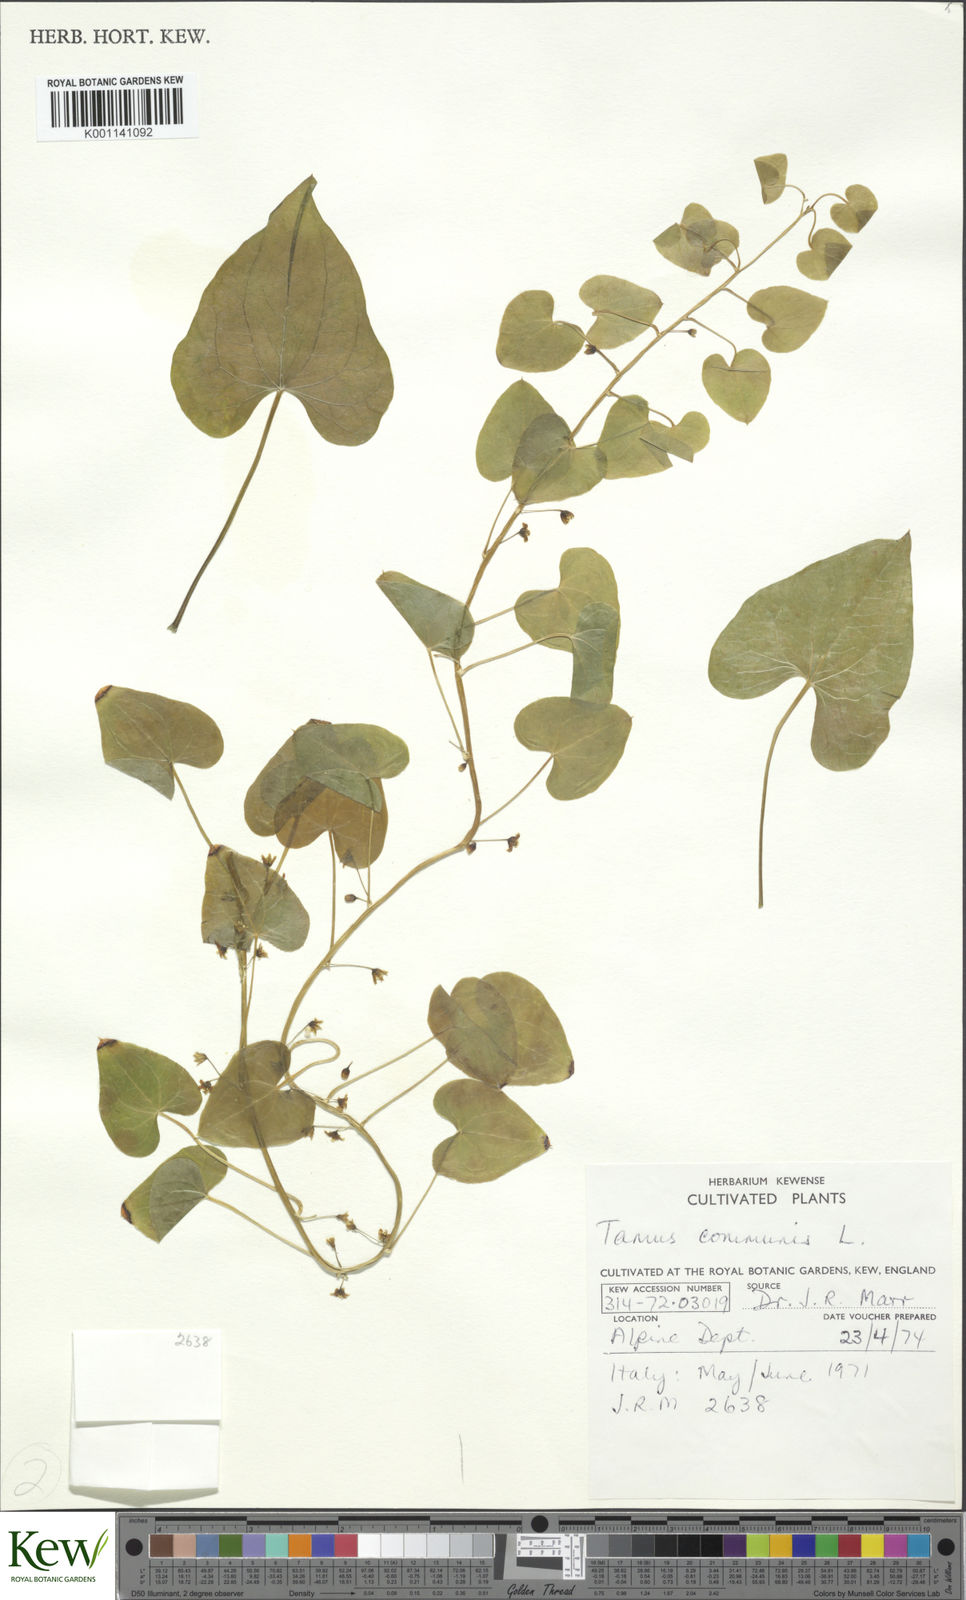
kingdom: Plantae
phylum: Tracheophyta
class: Liliopsida
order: Dioscoreales
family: Dioscoreaceae
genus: Dioscorea
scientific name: Dioscorea communis
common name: Black-bindweed
